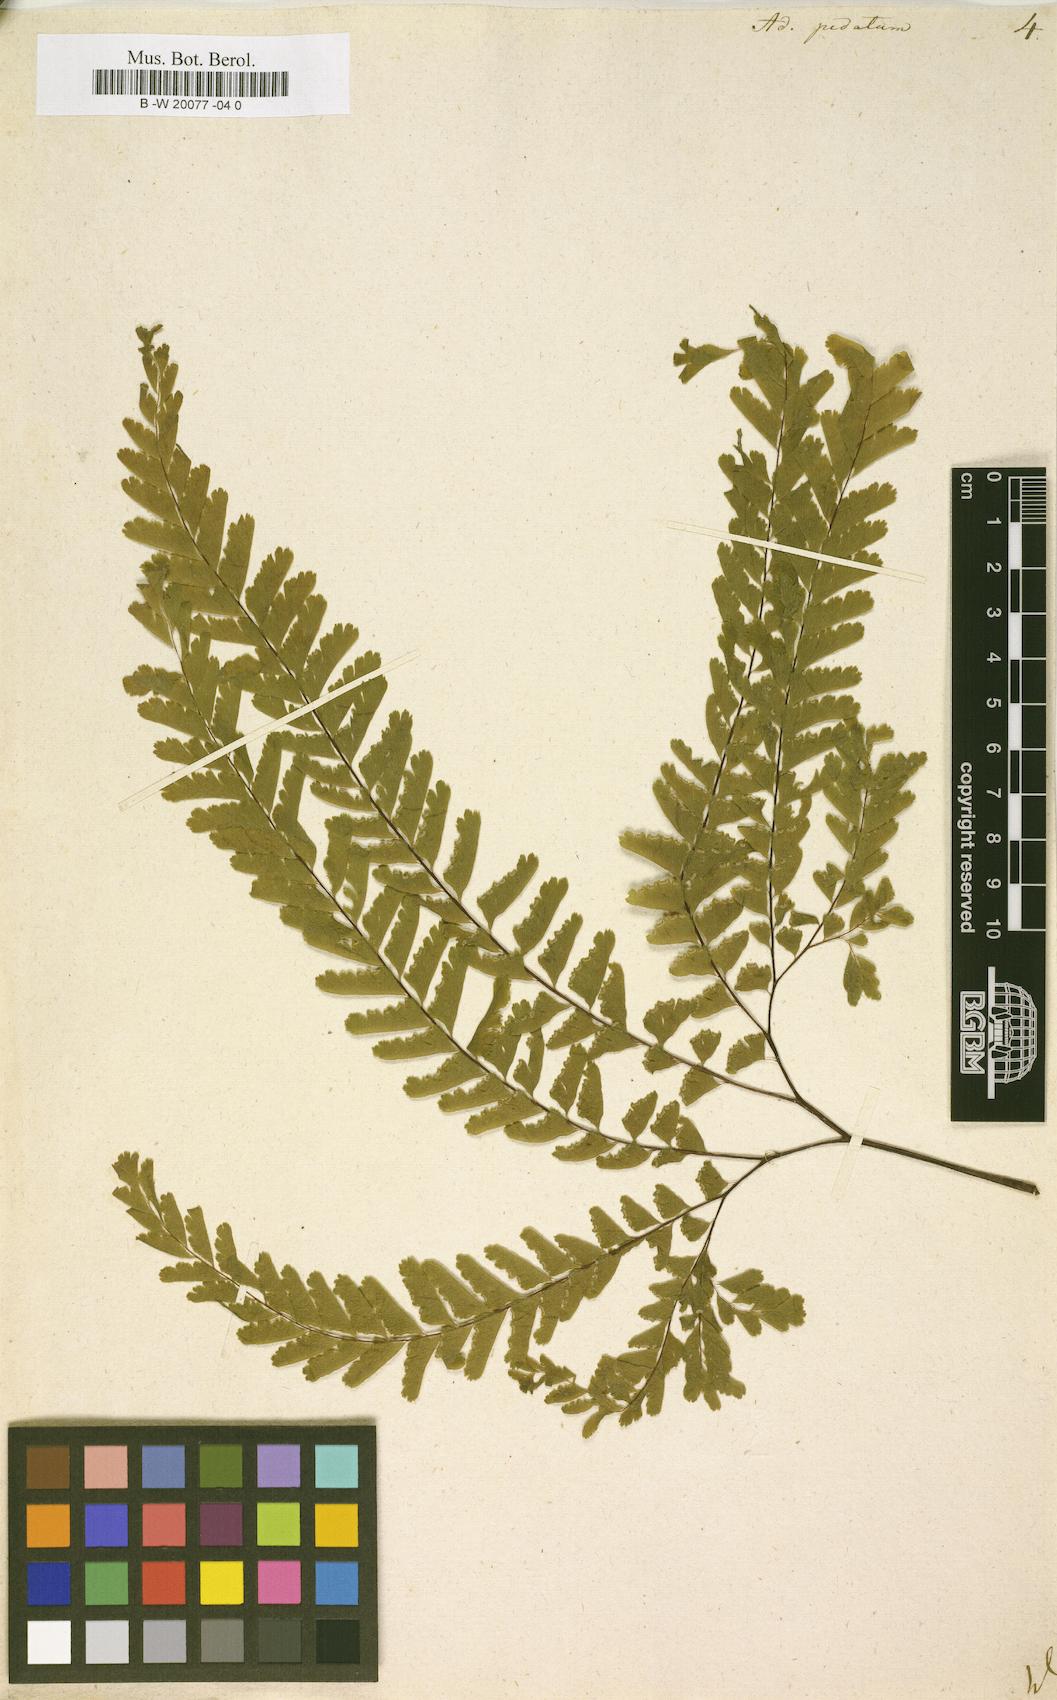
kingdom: Plantae
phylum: Tracheophyta
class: Polypodiopsida
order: Polypodiales
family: Pteridaceae
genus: Adiantum
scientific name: Adiantum pedatum
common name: Five-finger fern
